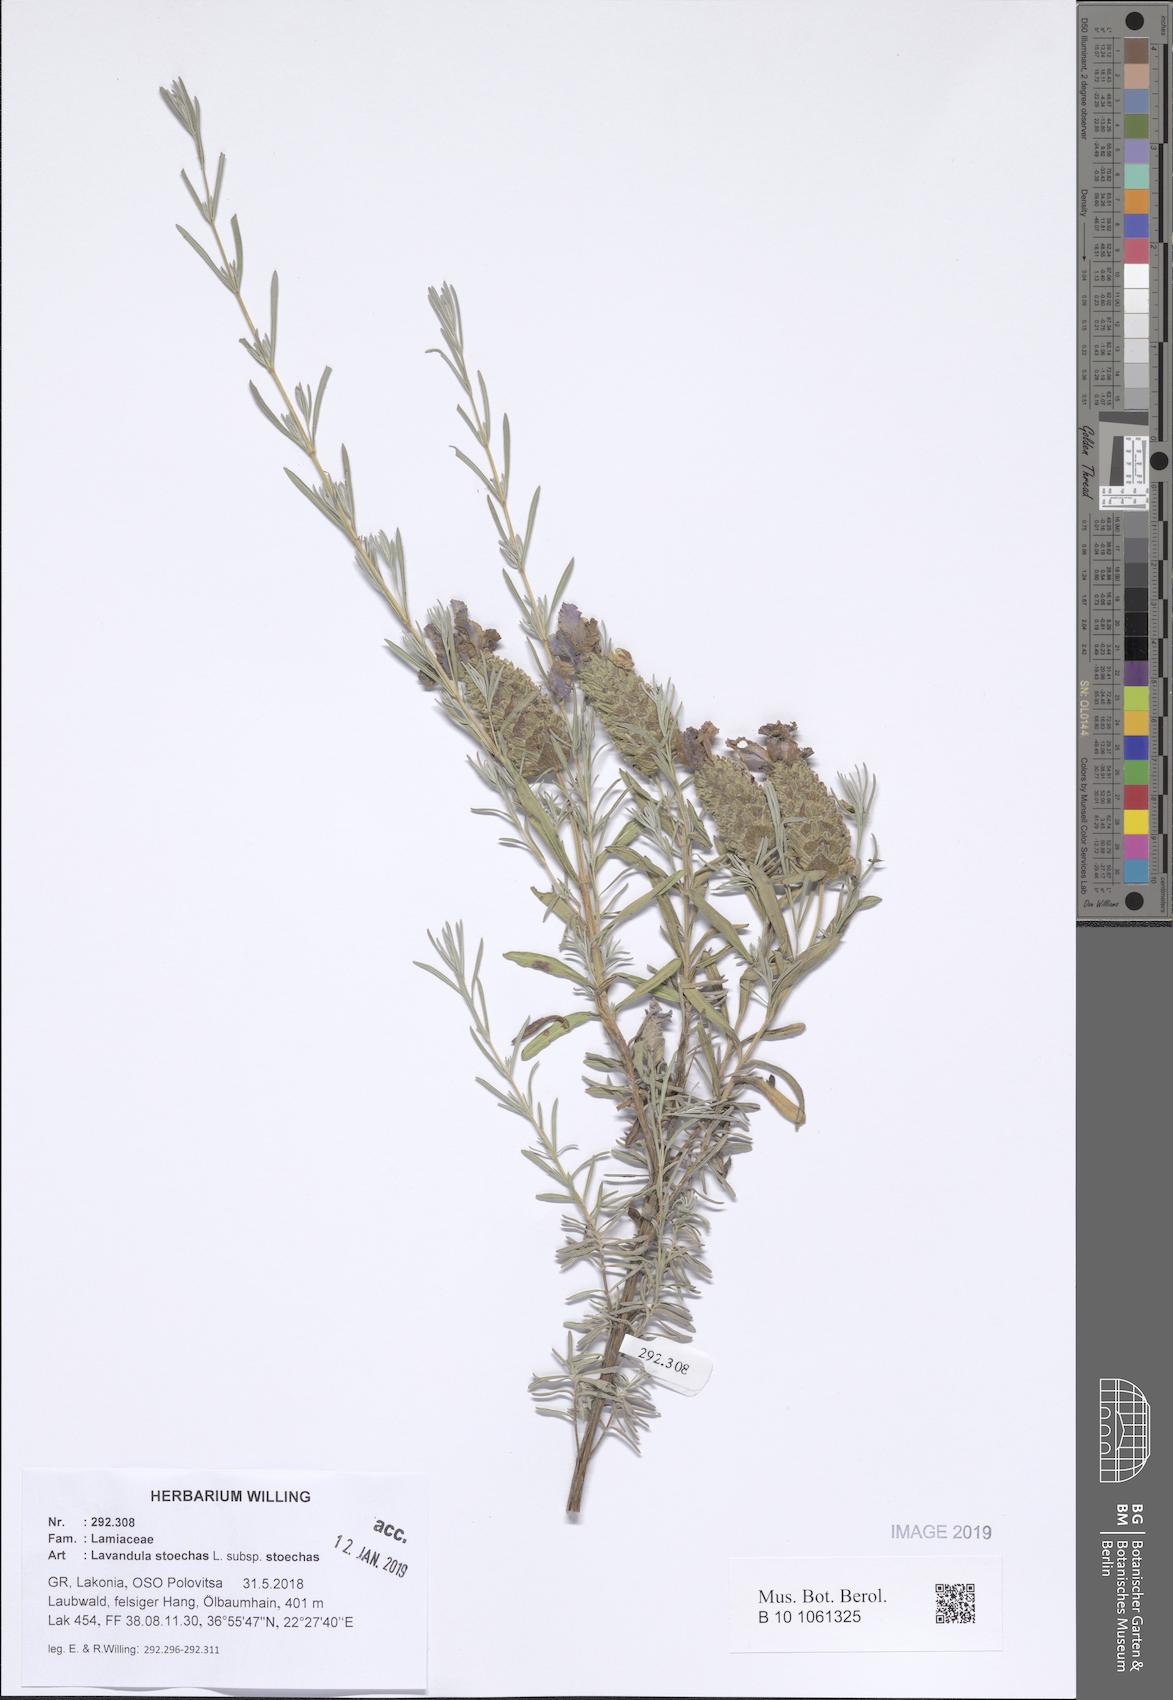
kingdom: Plantae
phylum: Tracheophyta
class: Magnoliopsida
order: Lamiales
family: Lamiaceae
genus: Lavandula
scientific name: Lavandula stoechas
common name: French lavender
